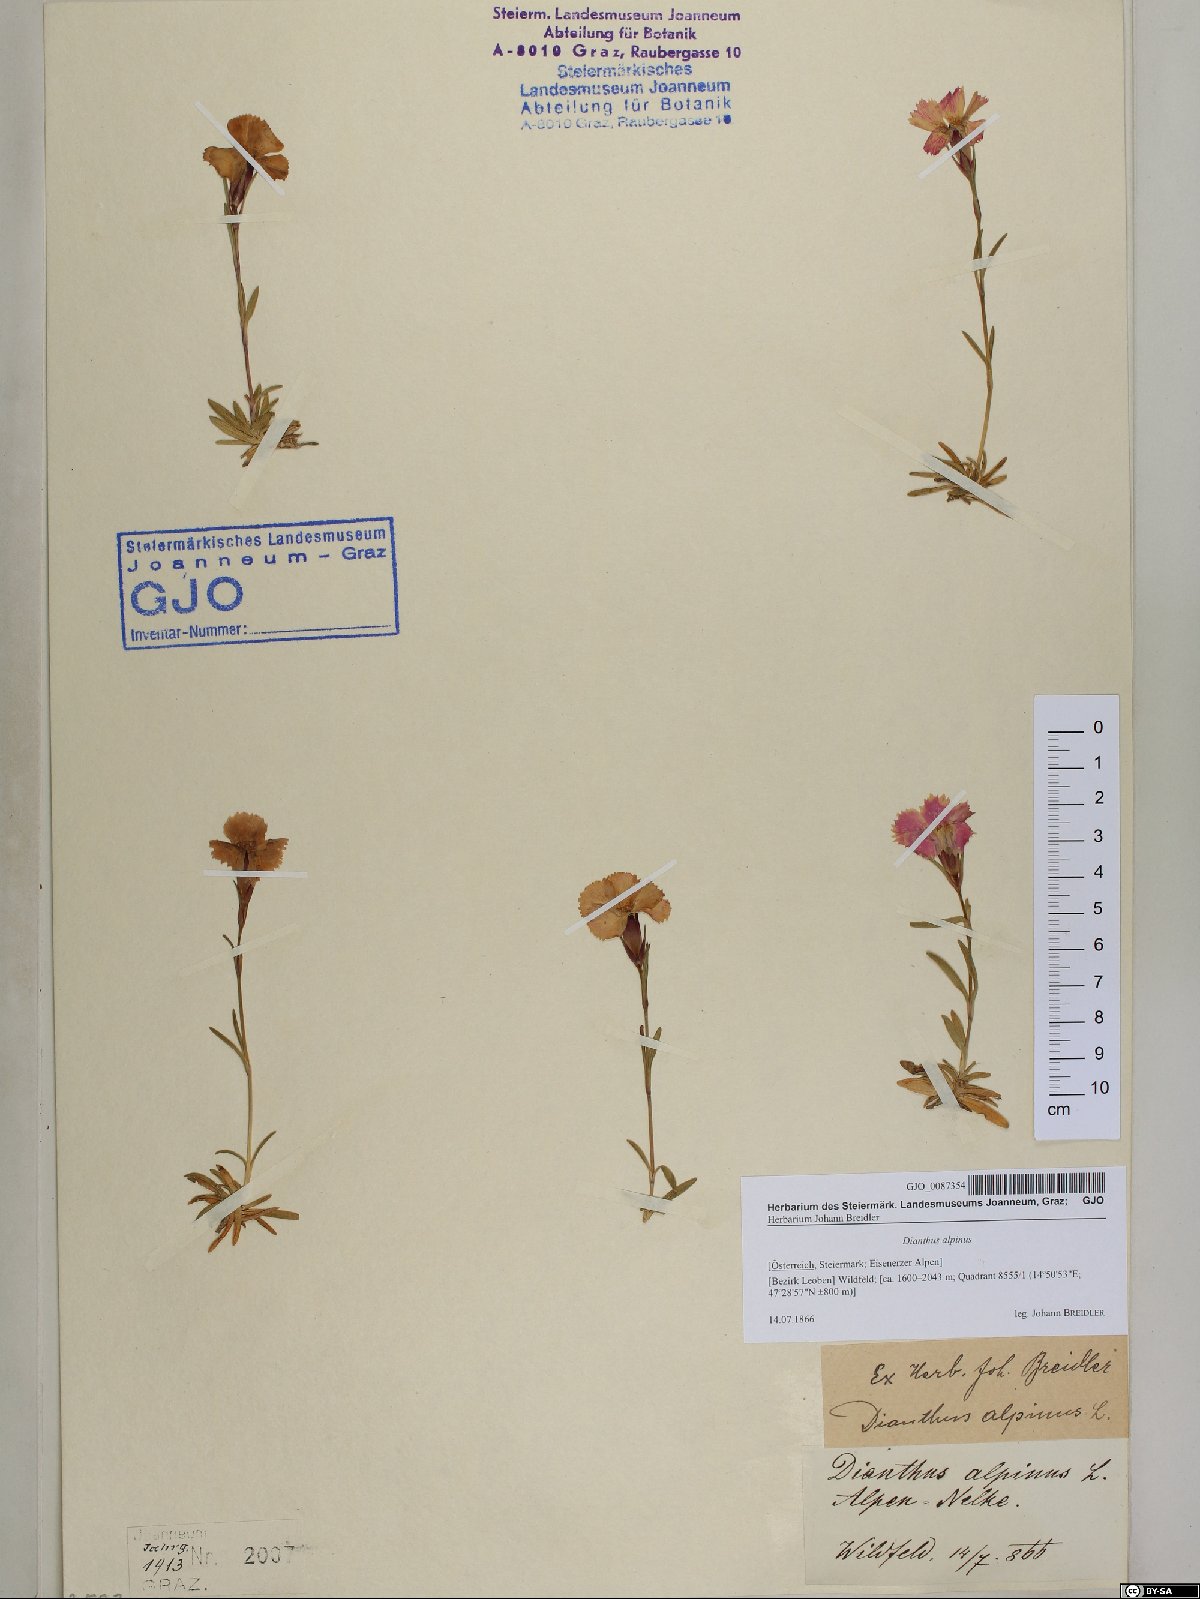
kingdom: Plantae
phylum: Tracheophyta
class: Magnoliopsida
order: Caryophyllales
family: Caryophyllaceae
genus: Dianthus
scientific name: Dianthus alpinus
